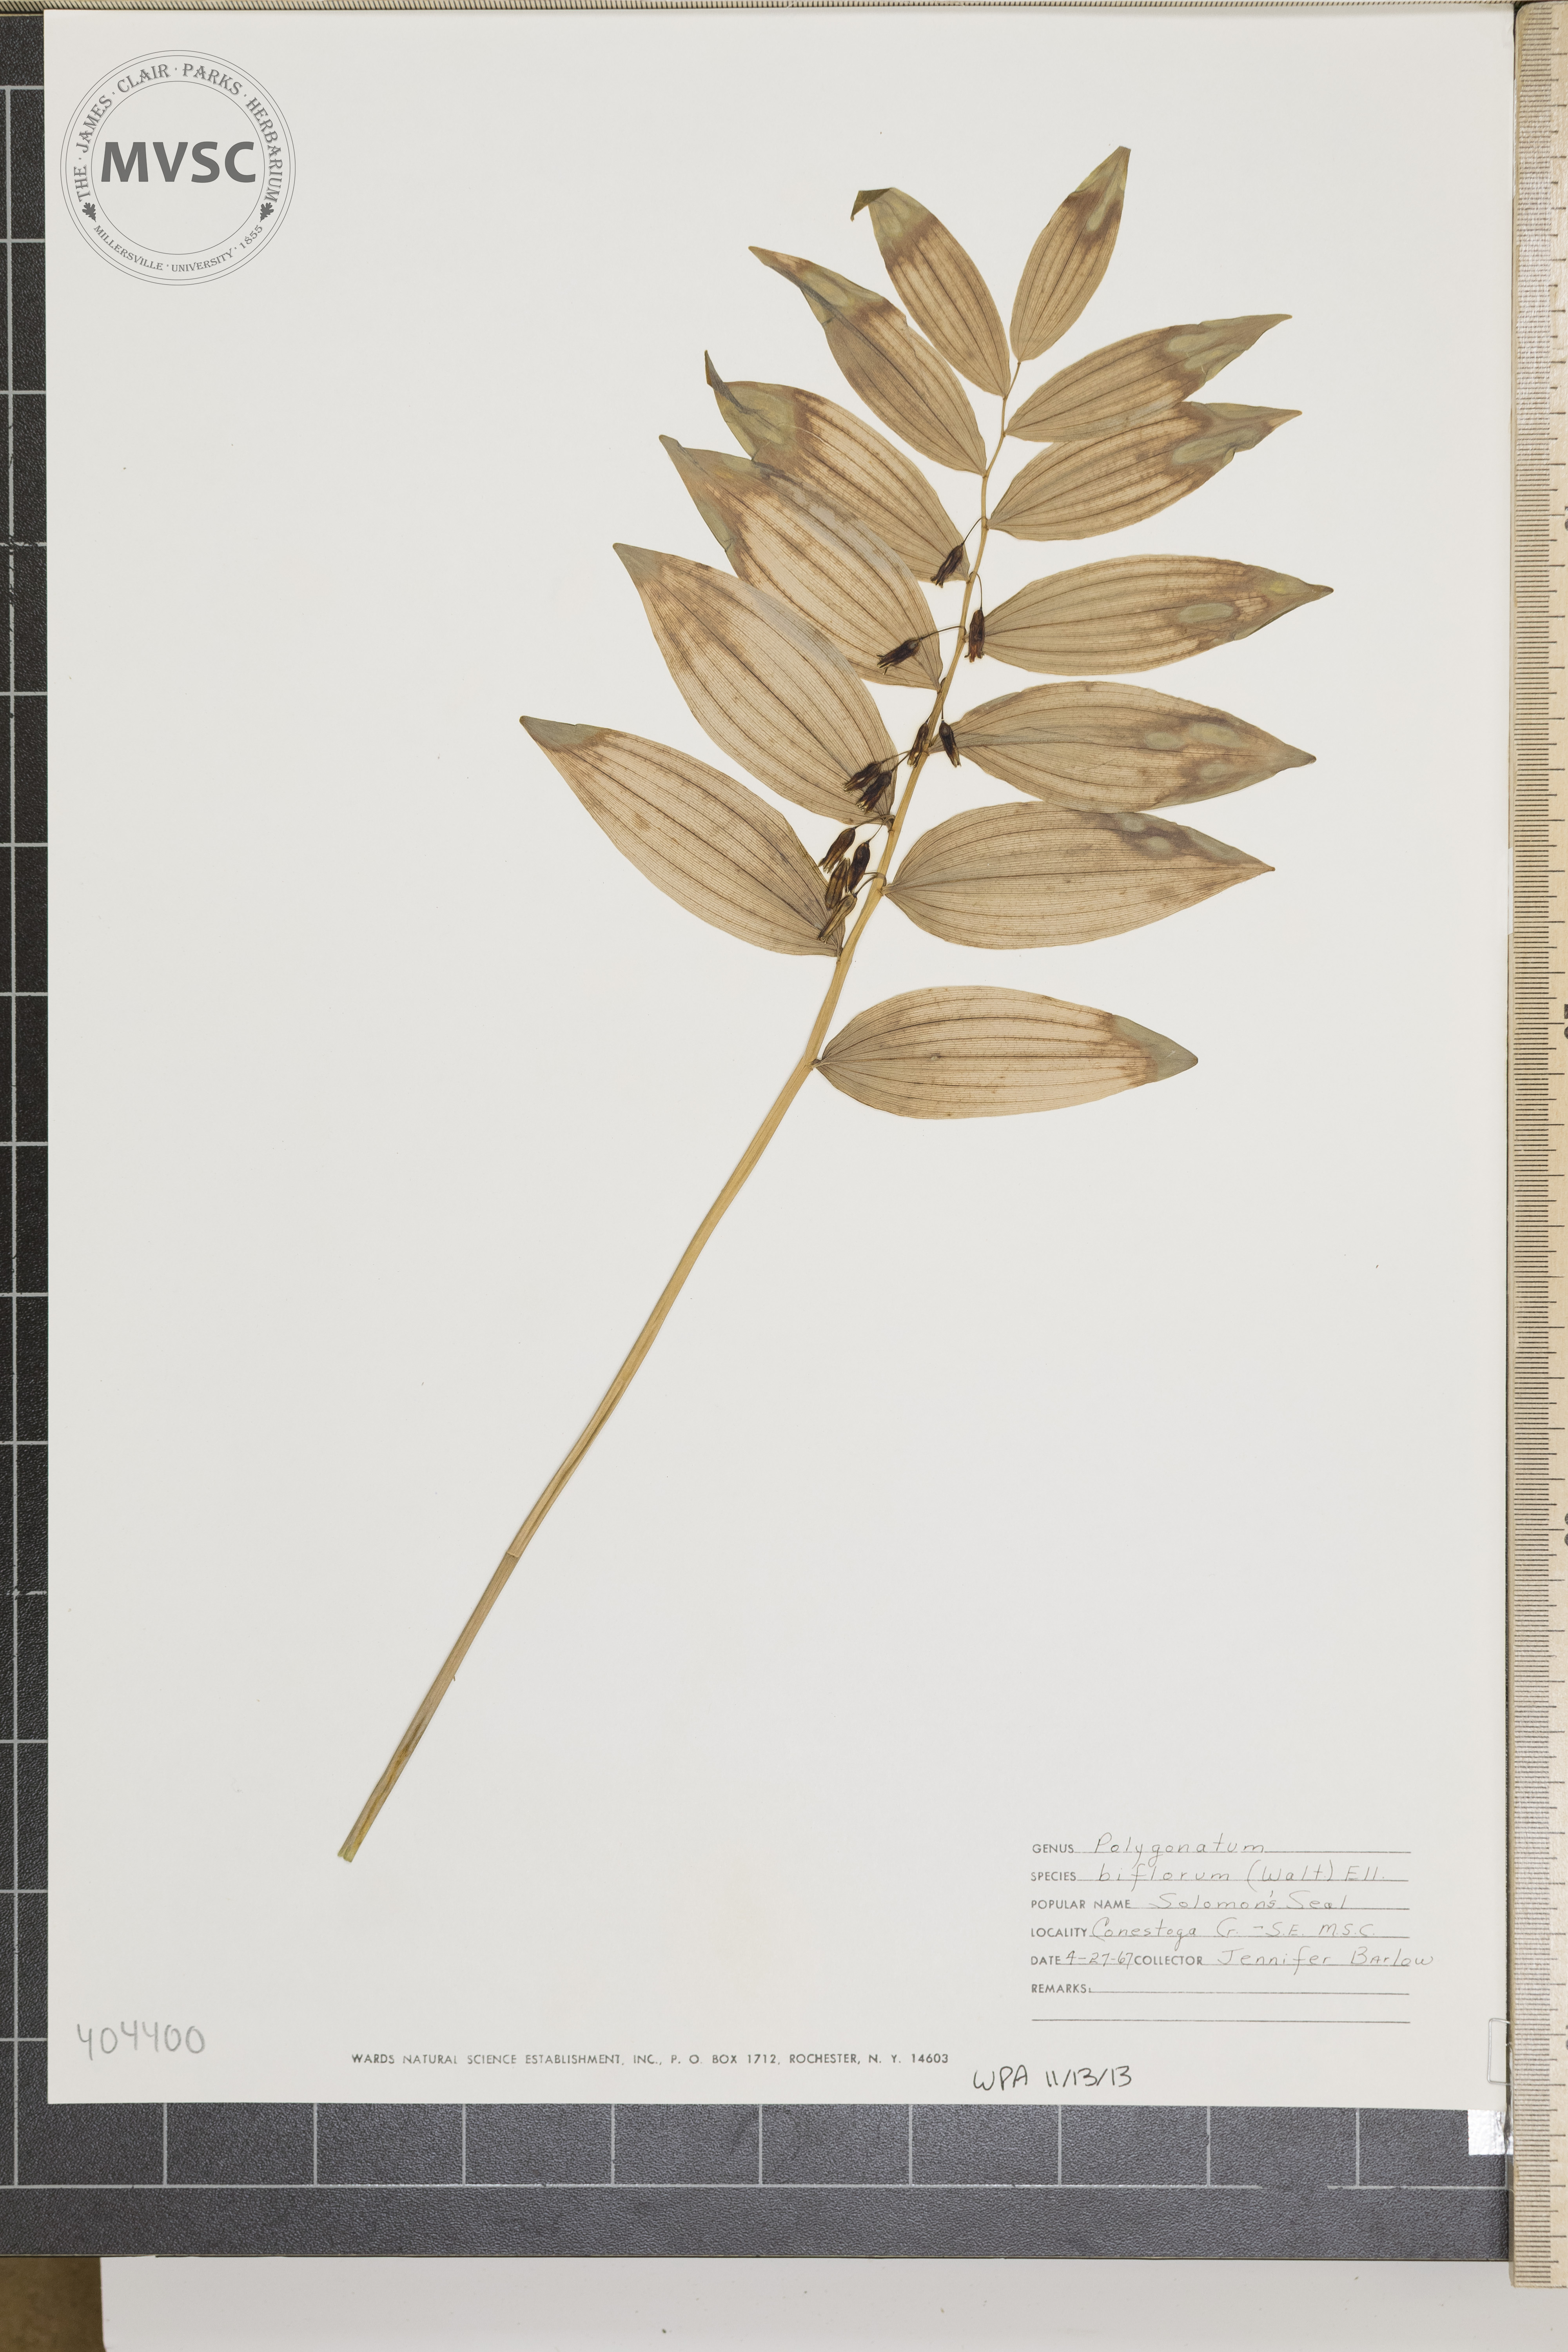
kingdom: Plantae
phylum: Tracheophyta
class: Liliopsida
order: Asparagales
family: Asparagaceae
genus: Polygonatum
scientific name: Polygonatum biflorum
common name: Solomon's Seal
